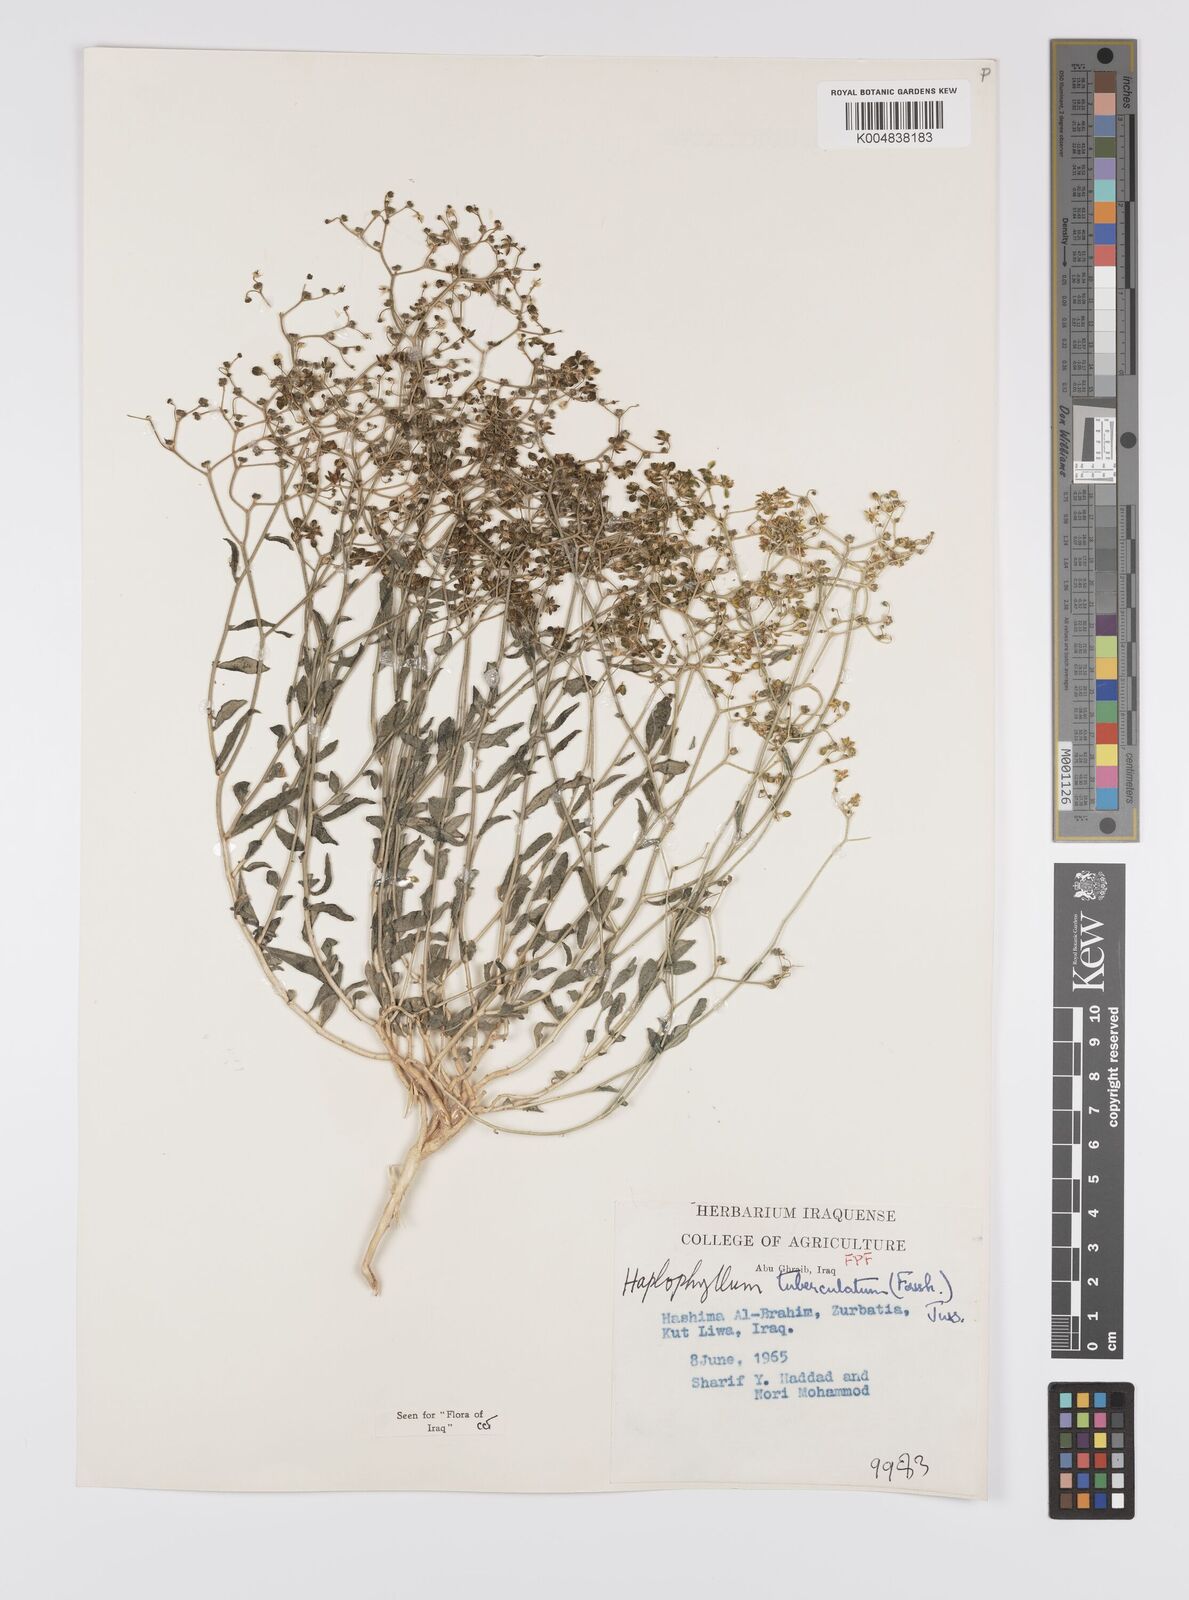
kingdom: Plantae
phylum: Tracheophyta
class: Magnoliopsida
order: Sapindales
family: Rutaceae
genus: Haplophyllum
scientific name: Haplophyllum tuberculatum
